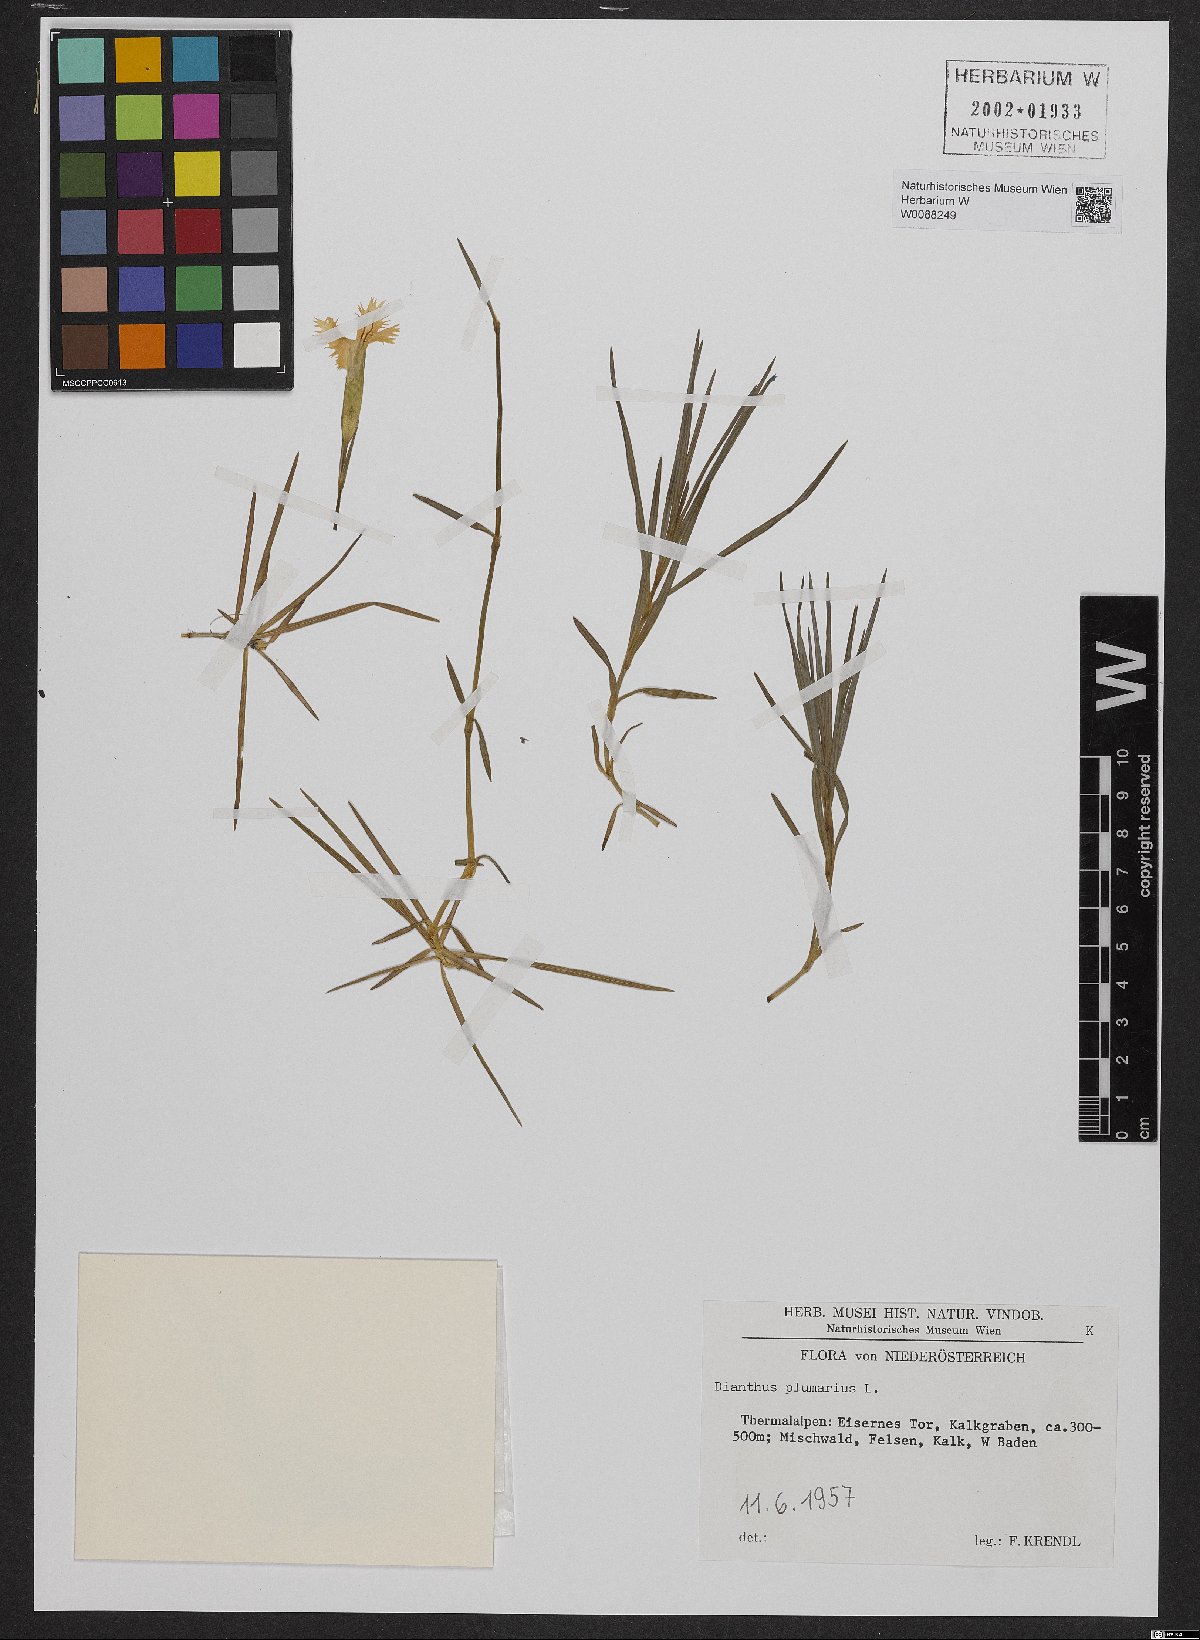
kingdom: Plantae
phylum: Tracheophyta
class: Magnoliopsida
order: Caryophyllales
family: Caryophyllaceae
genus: Dianthus
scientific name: Dianthus plumarius
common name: Pink
